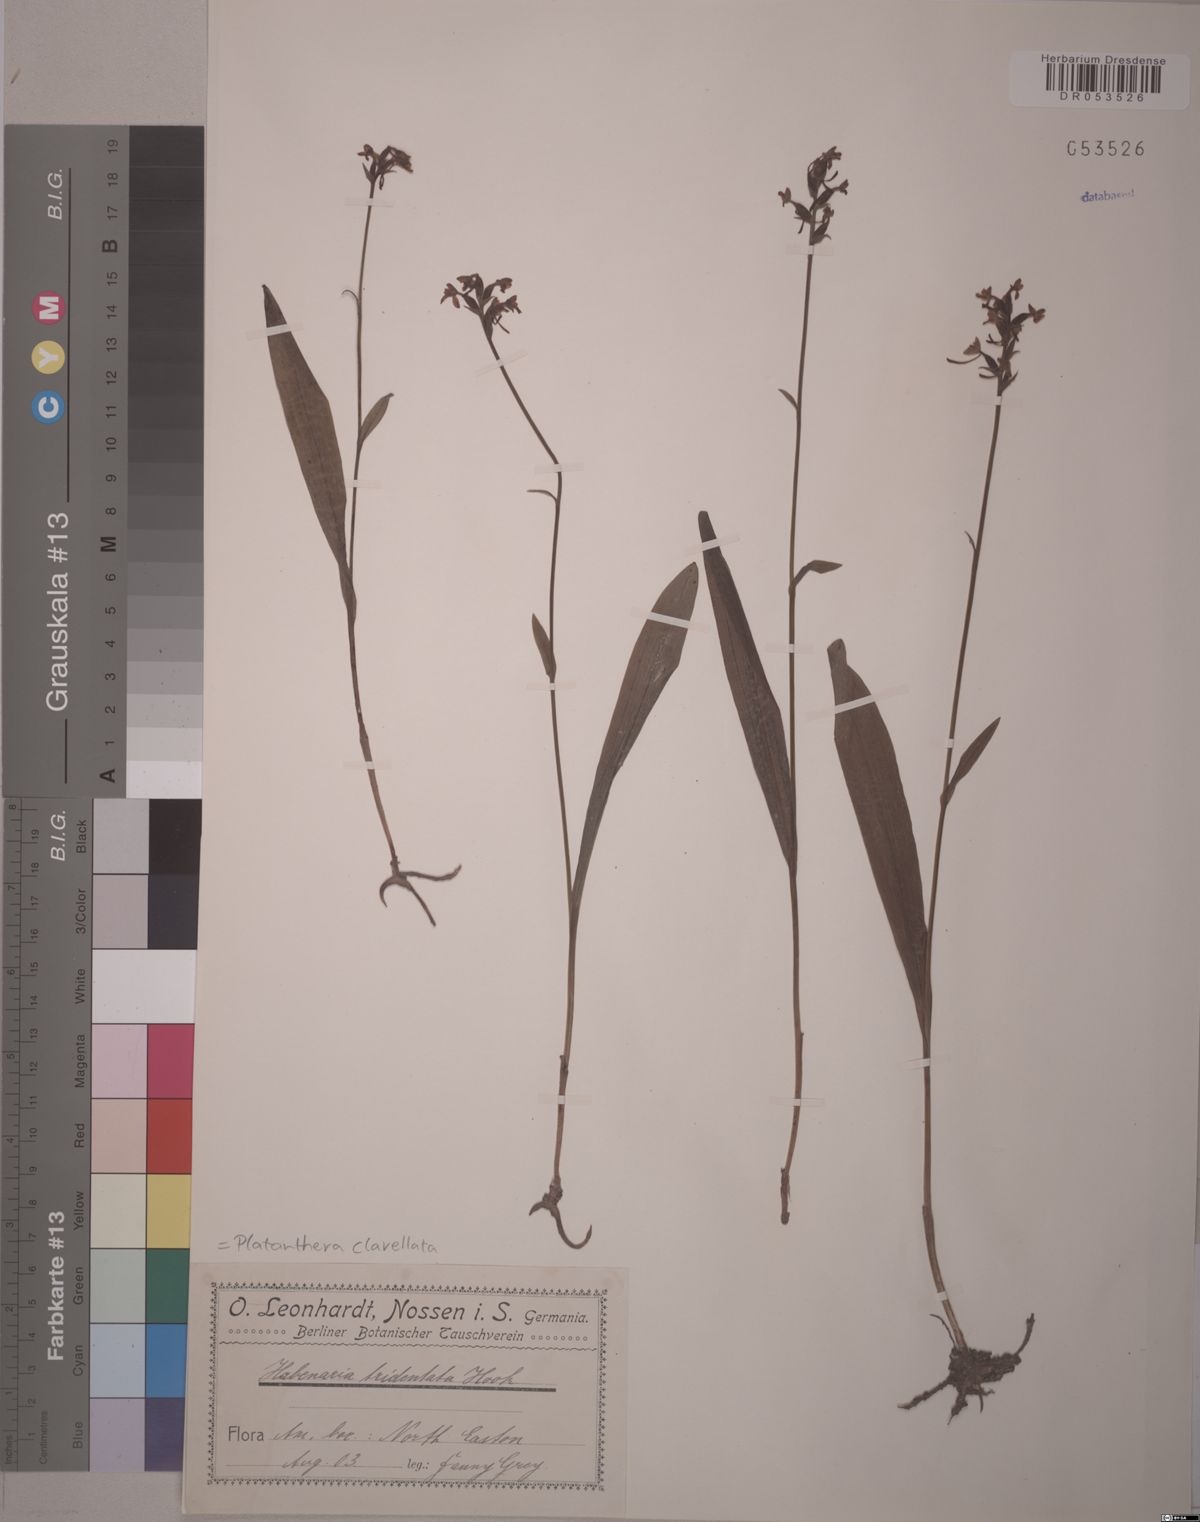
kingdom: Plantae
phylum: Tracheophyta
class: Liliopsida
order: Asparagales
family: Orchidaceae
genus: Platanthera
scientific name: Platanthera clavellata
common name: Club-spur orchid
